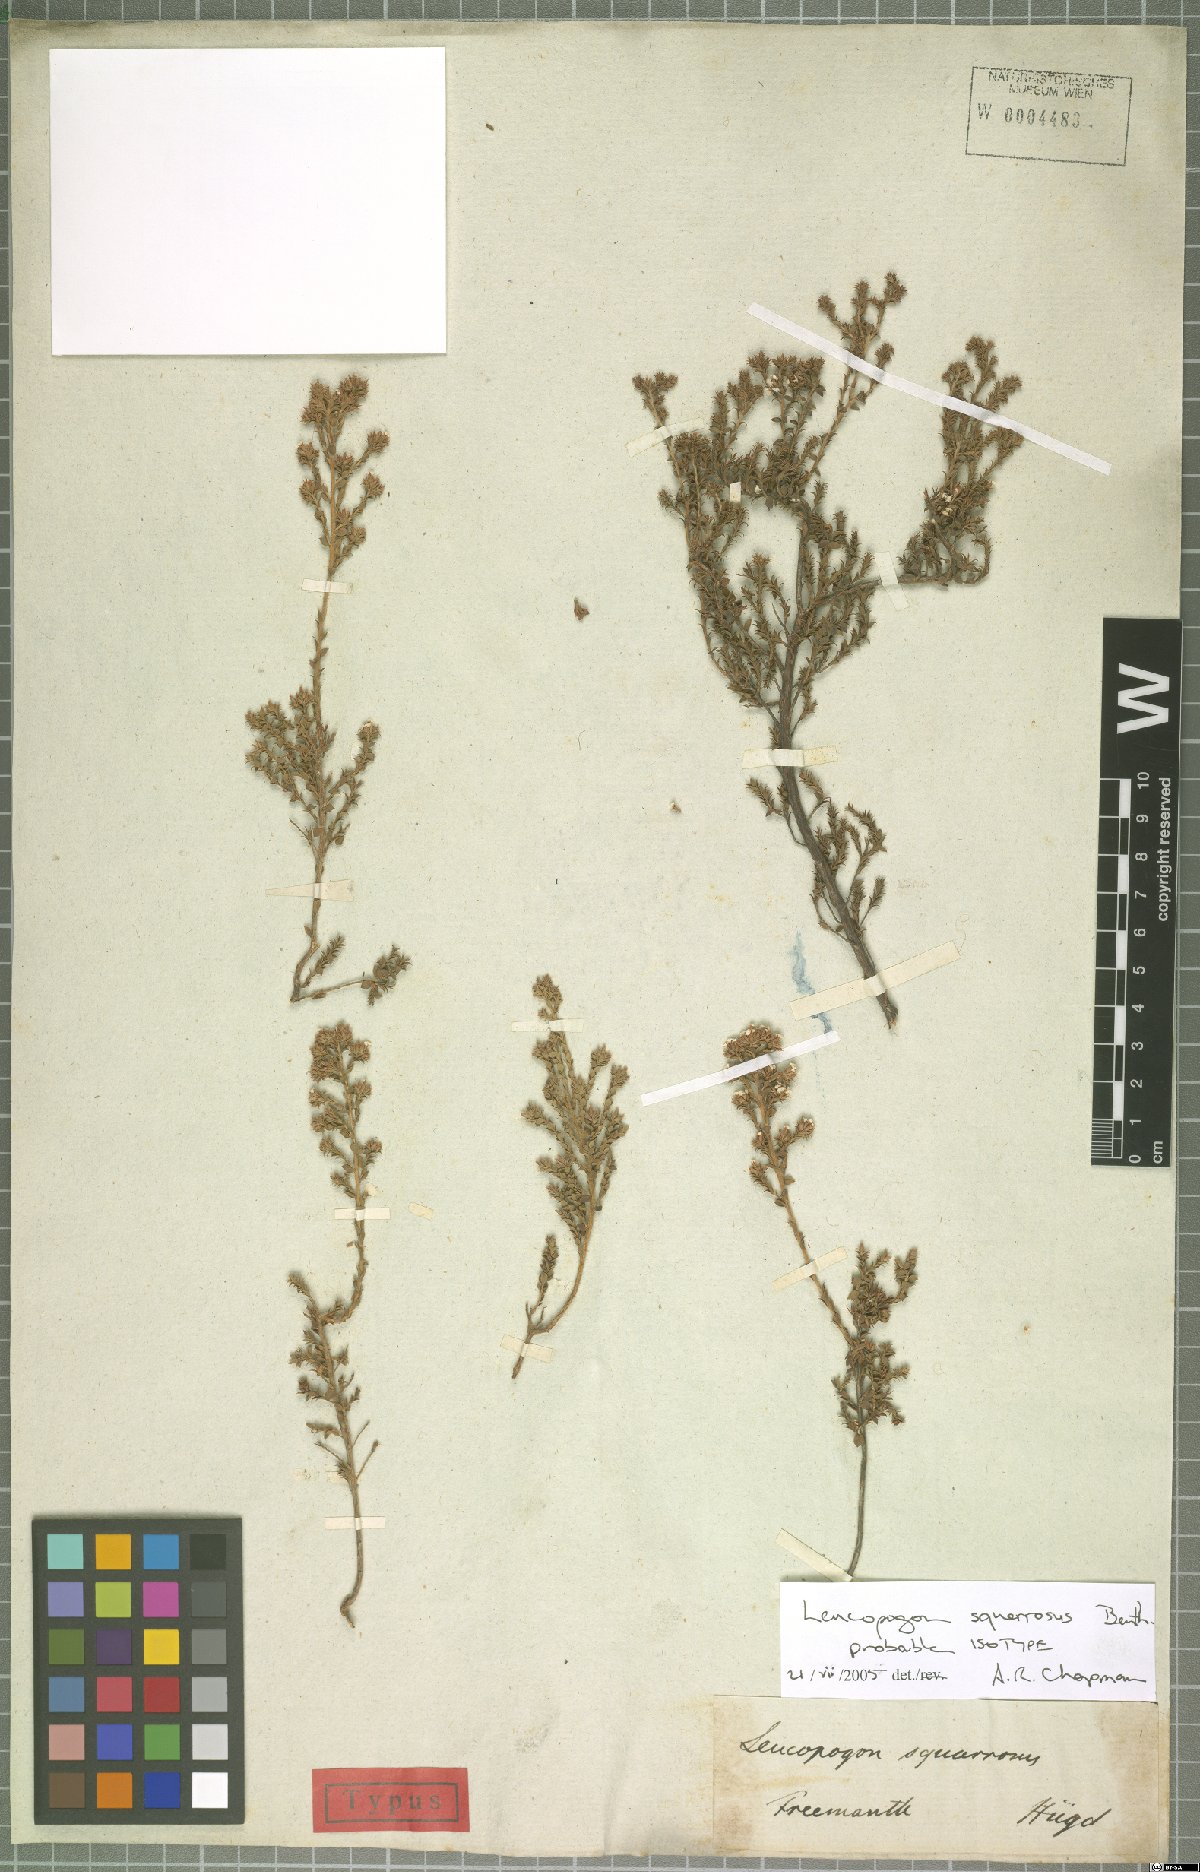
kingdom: Plantae
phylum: Tracheophyta
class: Magnoliopsida
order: Ericales
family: Ericaceae
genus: Leucopogon
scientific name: Leucopogon squarrosus
